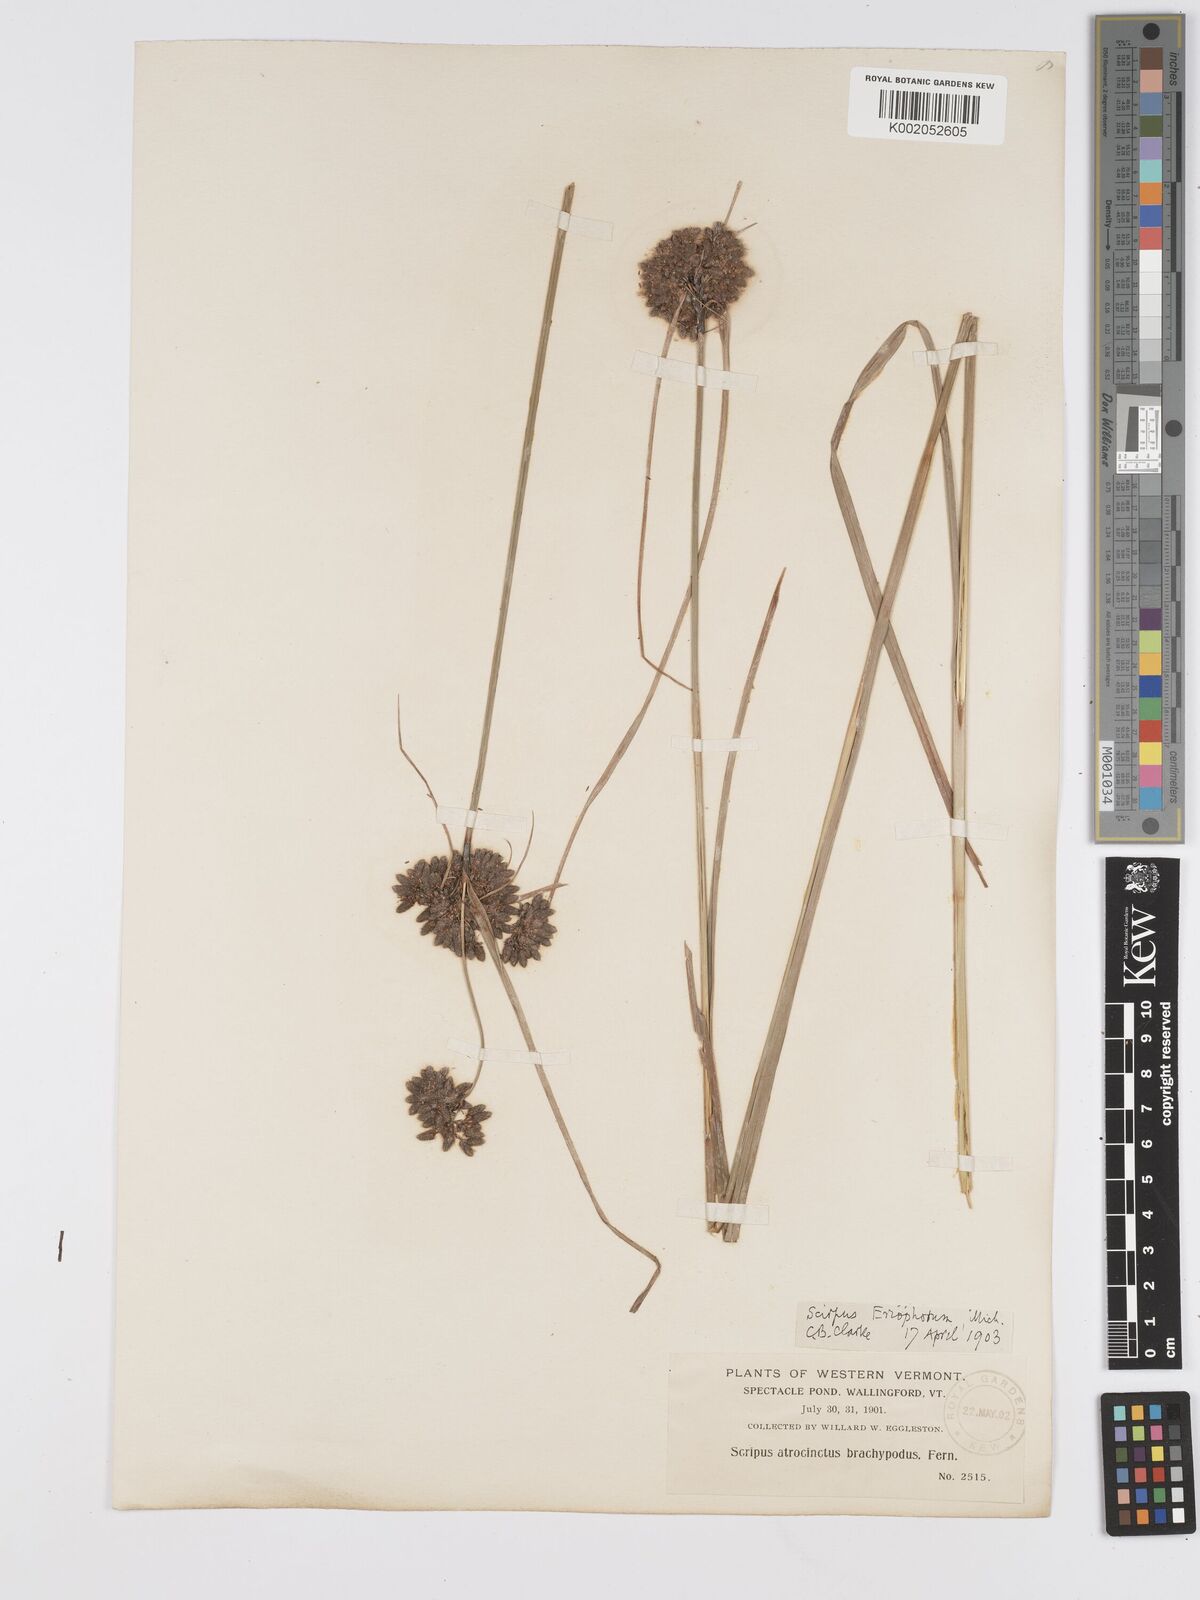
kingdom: Plantae
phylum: Tracheophyta
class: Liliopsida
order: Poales
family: Cyperaceae
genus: Scirpus
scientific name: Scirpus atrocinctus
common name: Black-girdled bulrush
